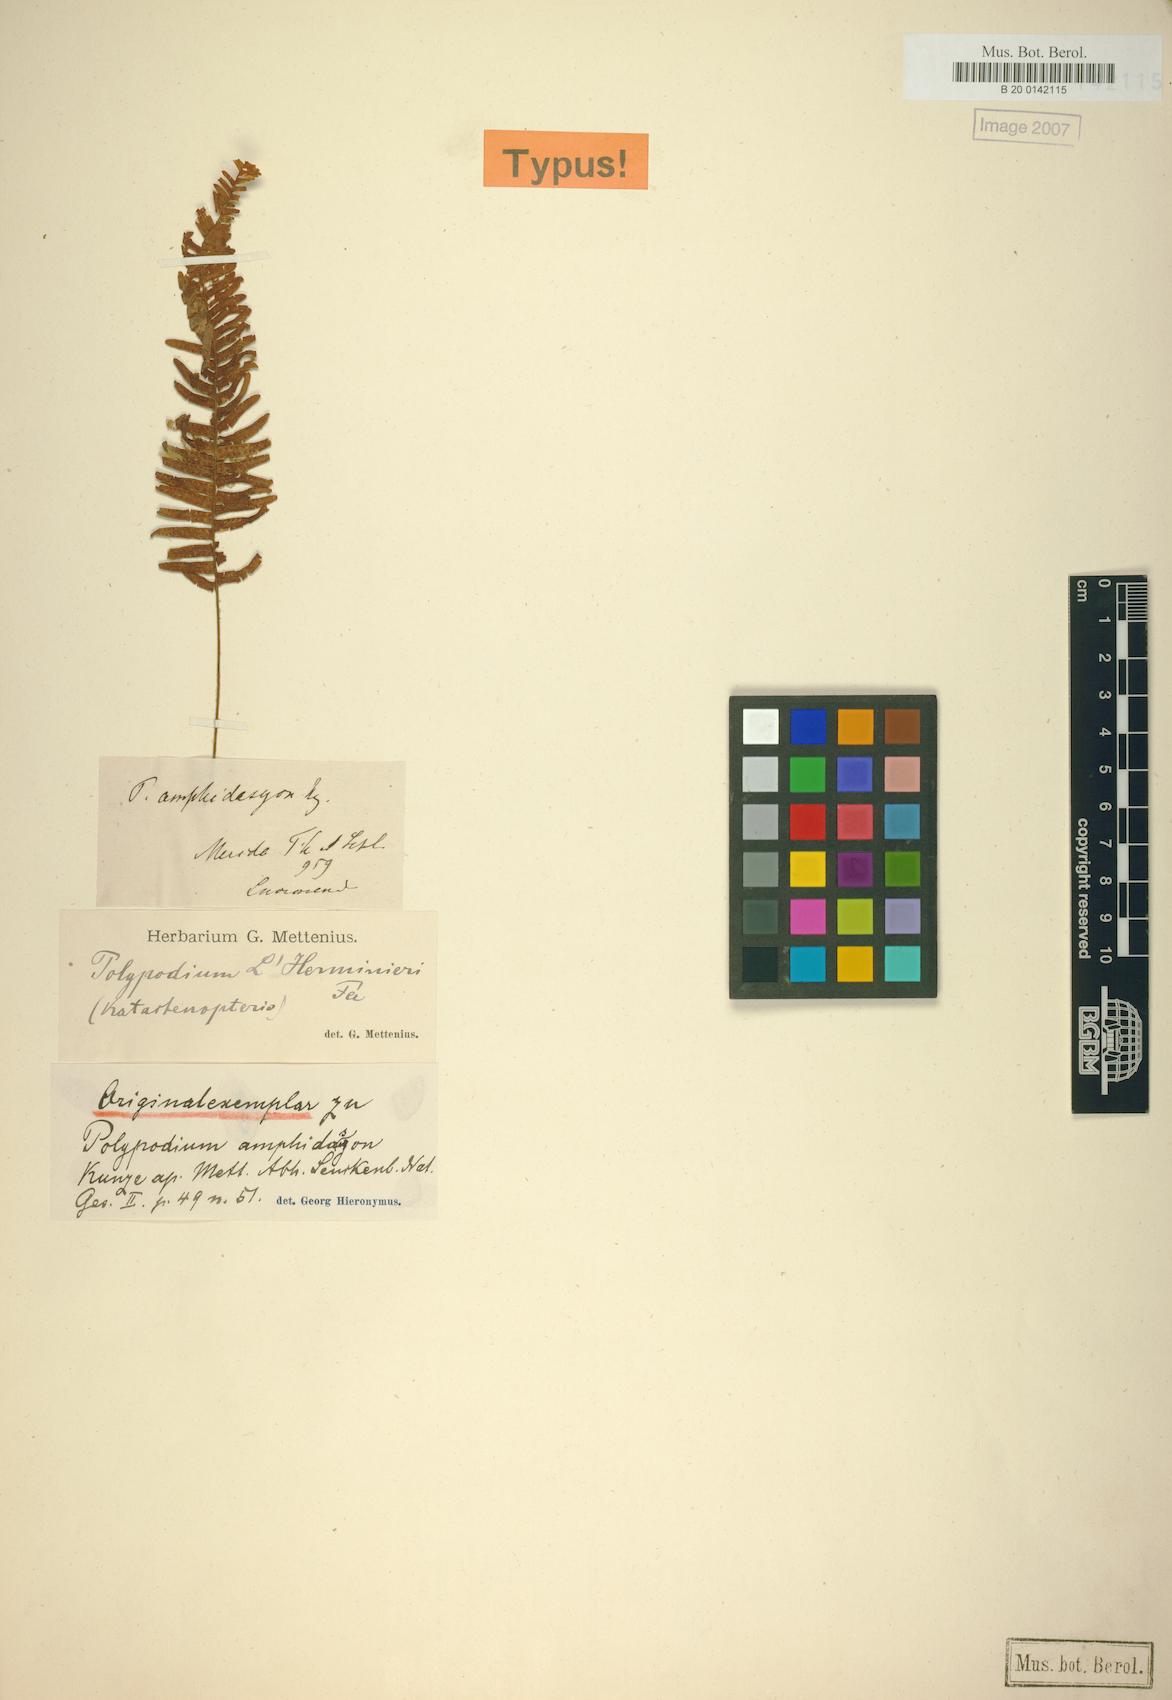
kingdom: Plantae
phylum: Tracheophyta
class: Polypodiopsida
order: Polypodiales
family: Polypodiaceae
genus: Mycopteris
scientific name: Mycopteris amphidasyon
